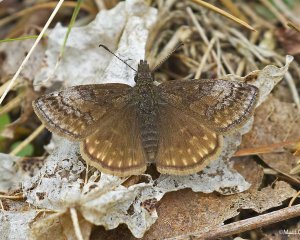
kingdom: Animalia
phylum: Arthropoda
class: Insecta
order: Lepidoptera
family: Hesperiidae
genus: Erynnis
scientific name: Erynnis icelus
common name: Dreamy Duskywing
